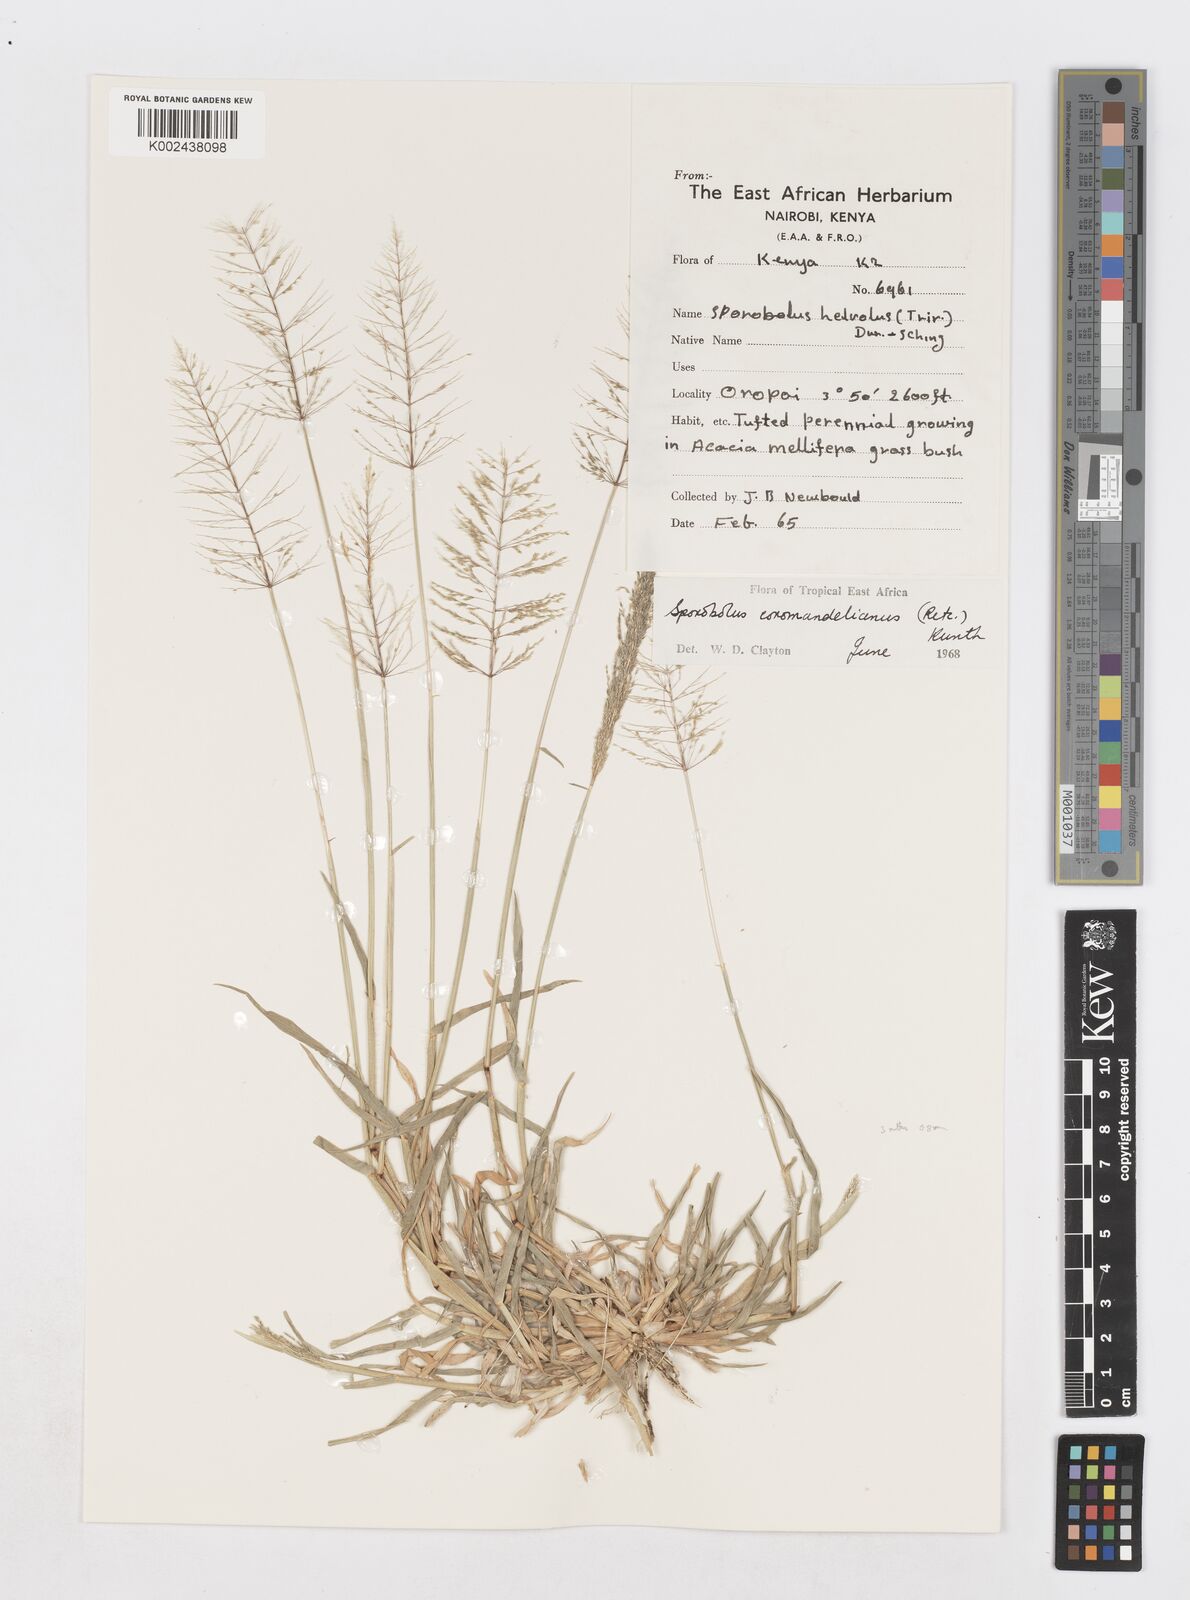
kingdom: Plantae
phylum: Tracheophyta
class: Liliopsida
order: Poales
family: Poaceae
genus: Sporobolus
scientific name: Sporobolus coromandelianus
